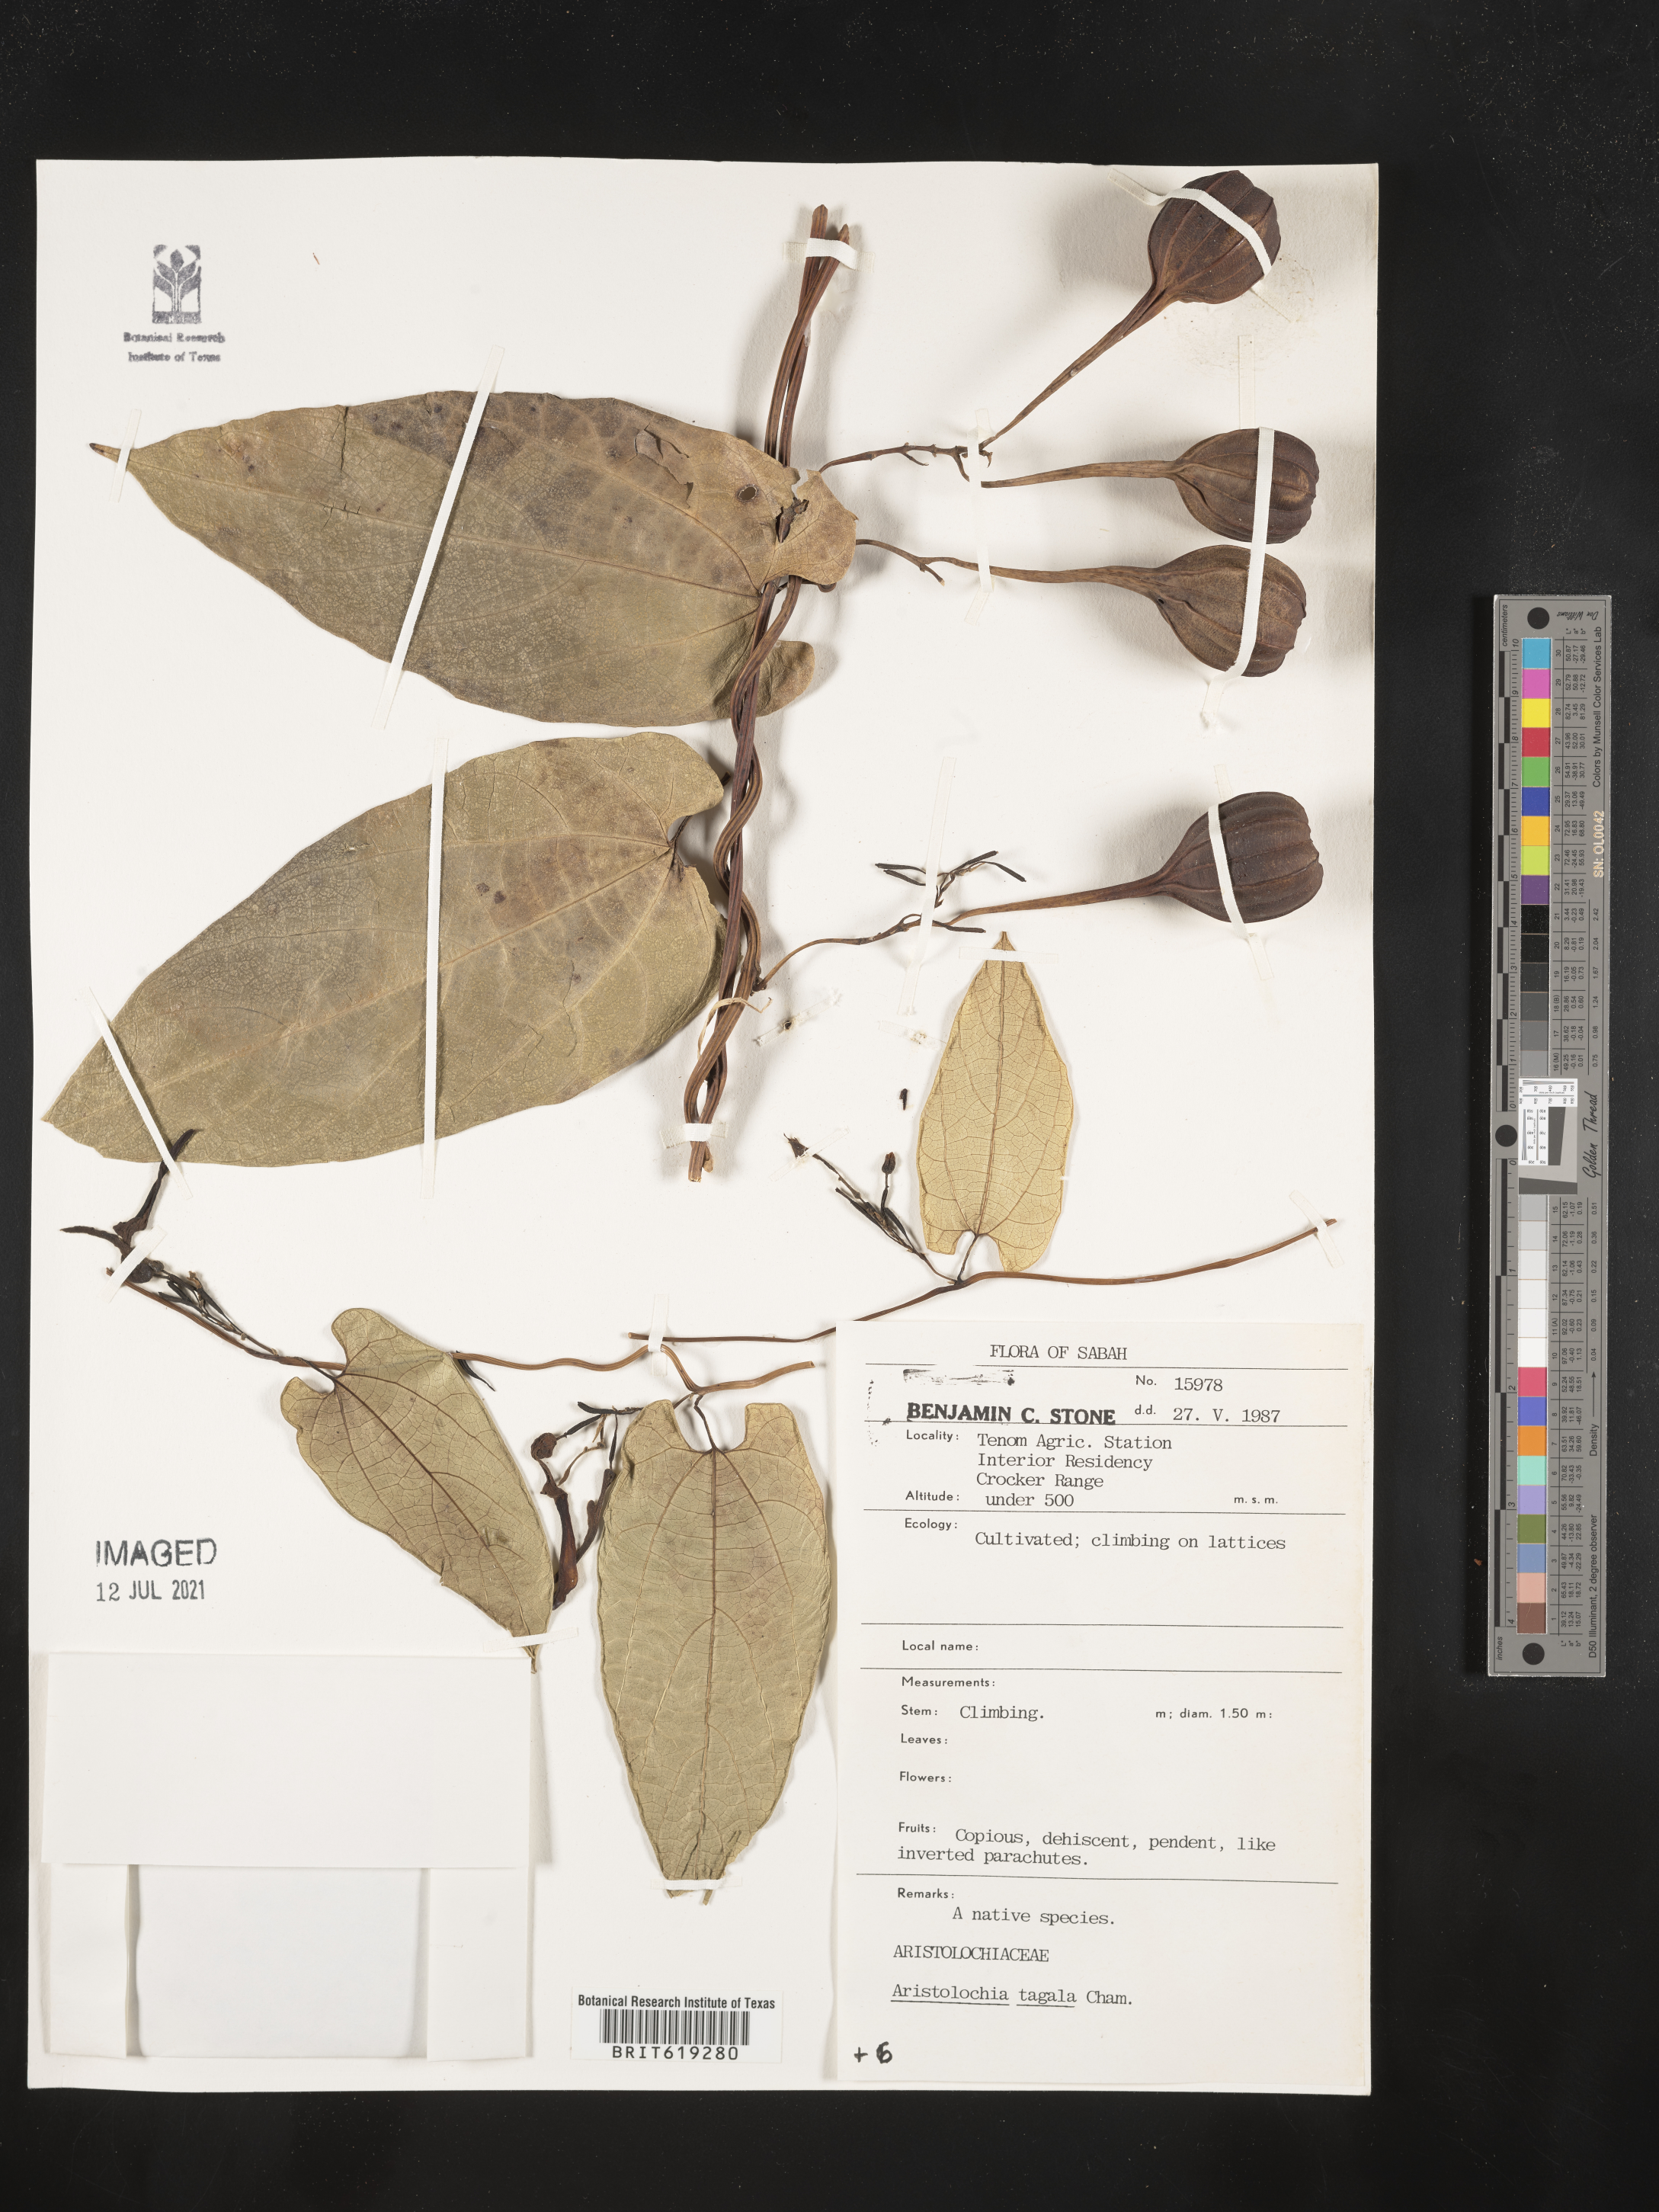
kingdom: Plantae
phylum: Tracheophyta
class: Magnoliopsida
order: Piperales
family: Aristolochiaceae
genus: Aristolochia
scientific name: Aristolochia acuminata
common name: Indian birthwort
